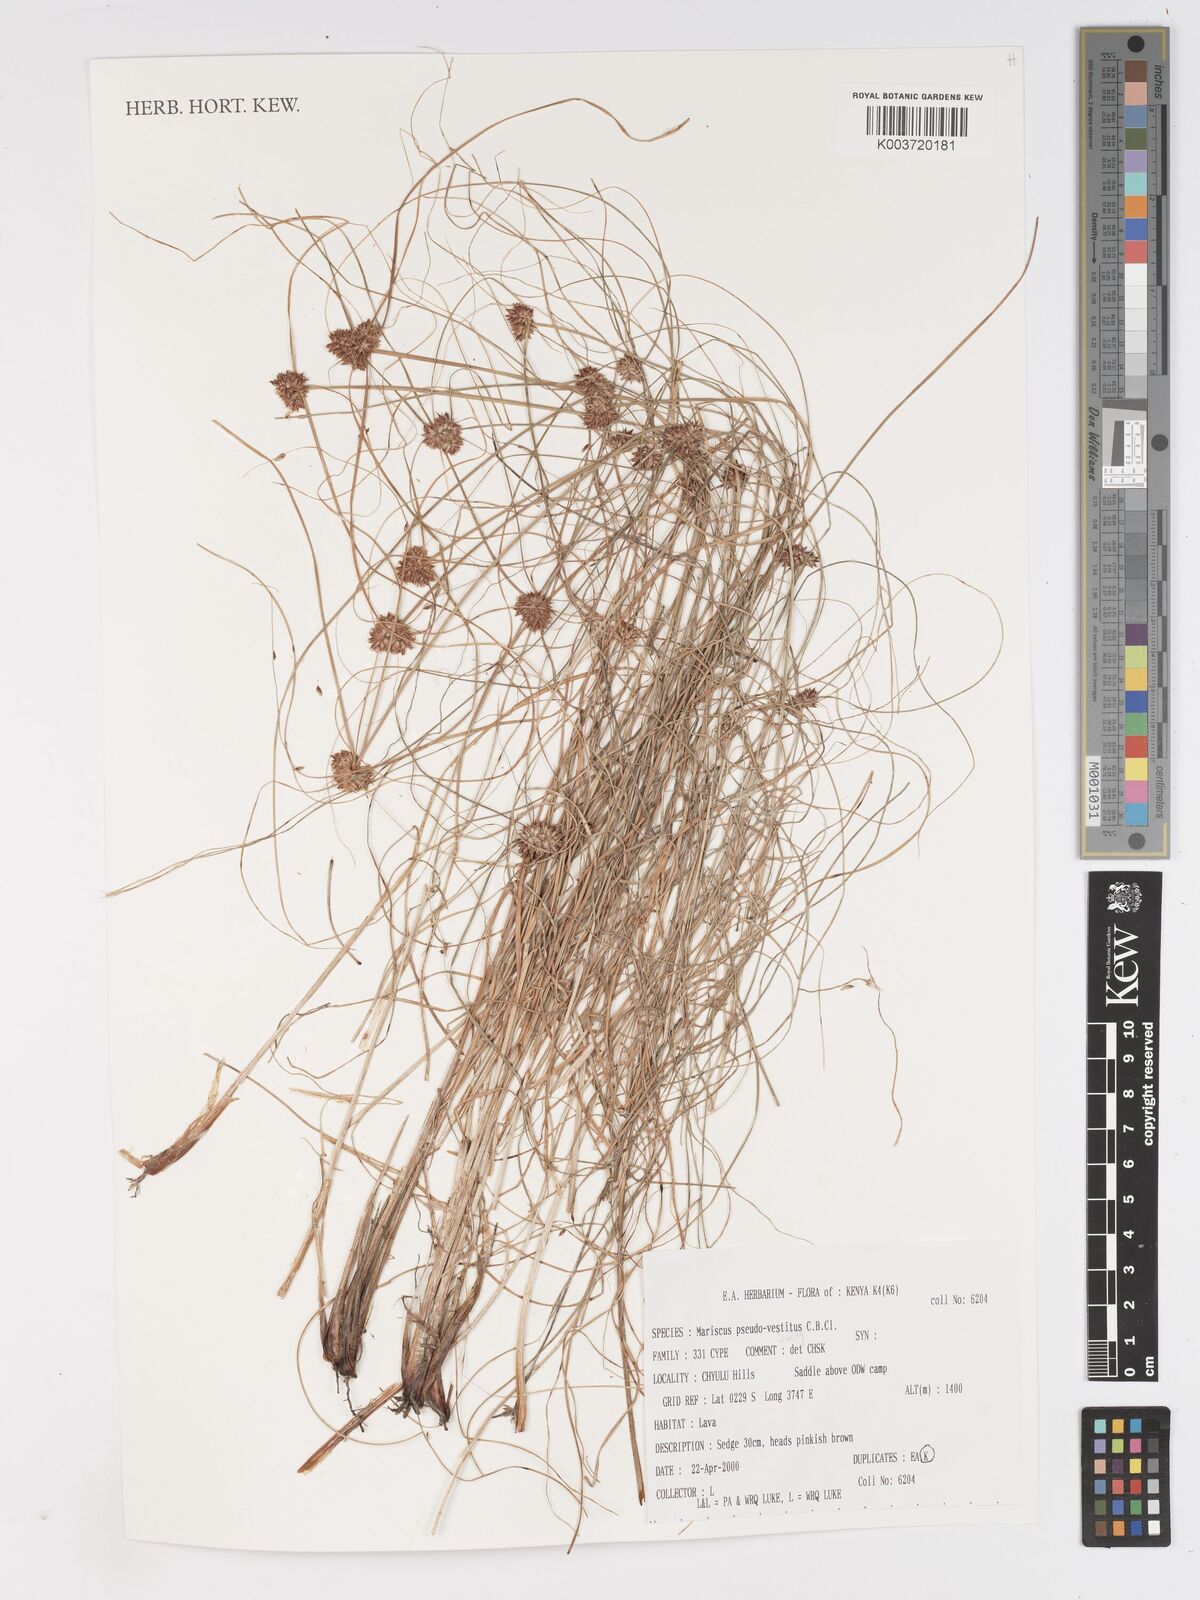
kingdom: Plantae
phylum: Tracheophyta
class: Liliopsida
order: Poales
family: Cyperaceae
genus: Cyperus
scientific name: Cyperus pseudovestitus
